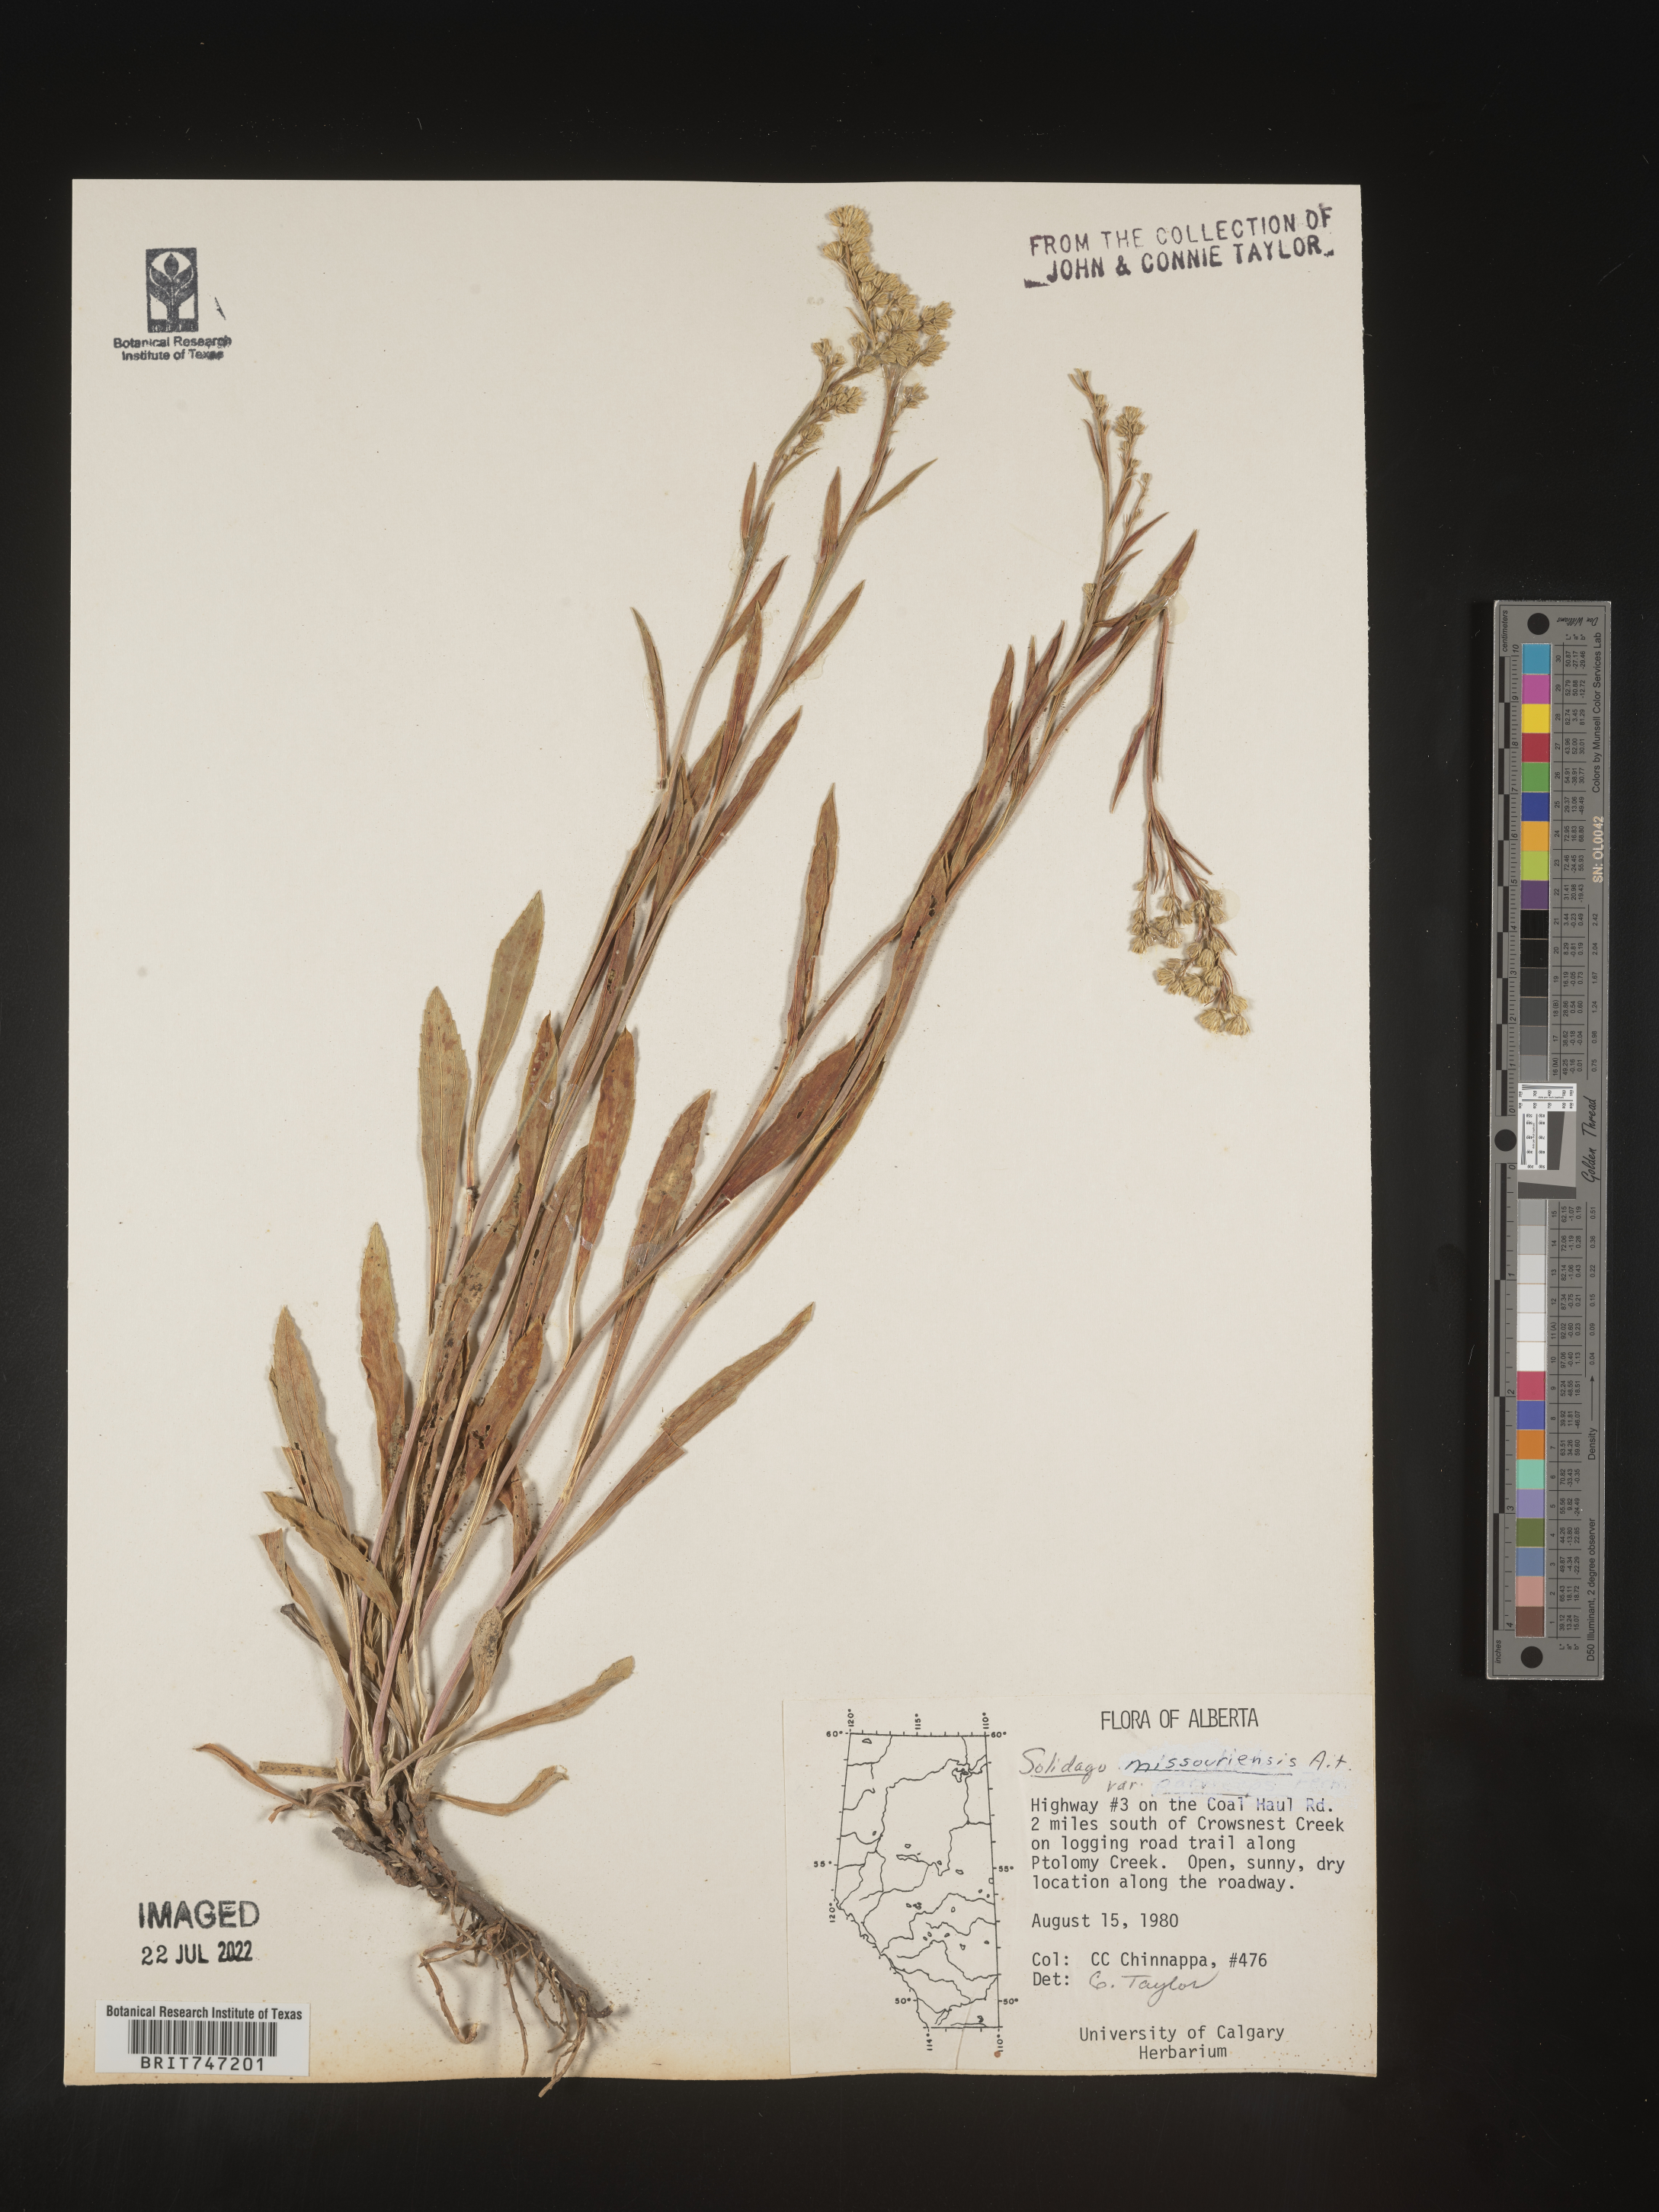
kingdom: Plantae
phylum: Tracheophyta
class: Magnoliopsida
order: Asterales
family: Asteraceae
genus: Solidago
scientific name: Solidago missouriensis
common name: Prairie goldenrod
